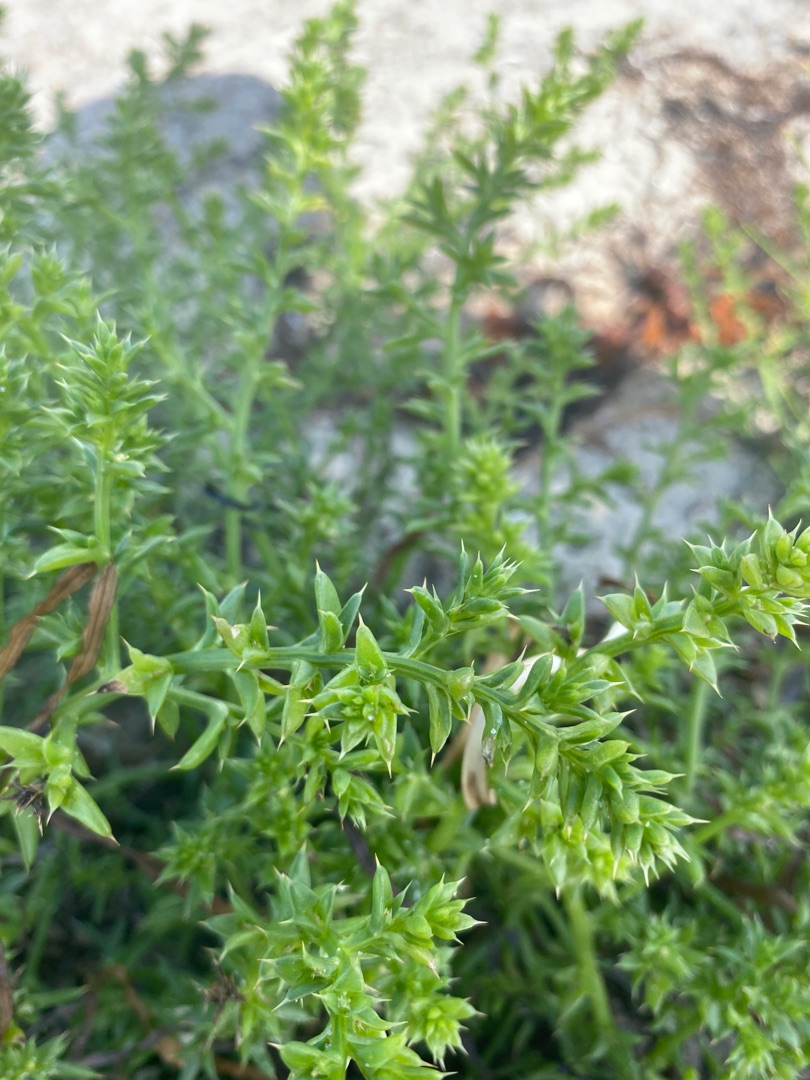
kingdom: Plantae
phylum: Tracheophyta
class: Magnoliopsida
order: Caryophyllales
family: Amaranthaceae
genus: Salsola
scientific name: Salsola kali
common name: Sodaurt
